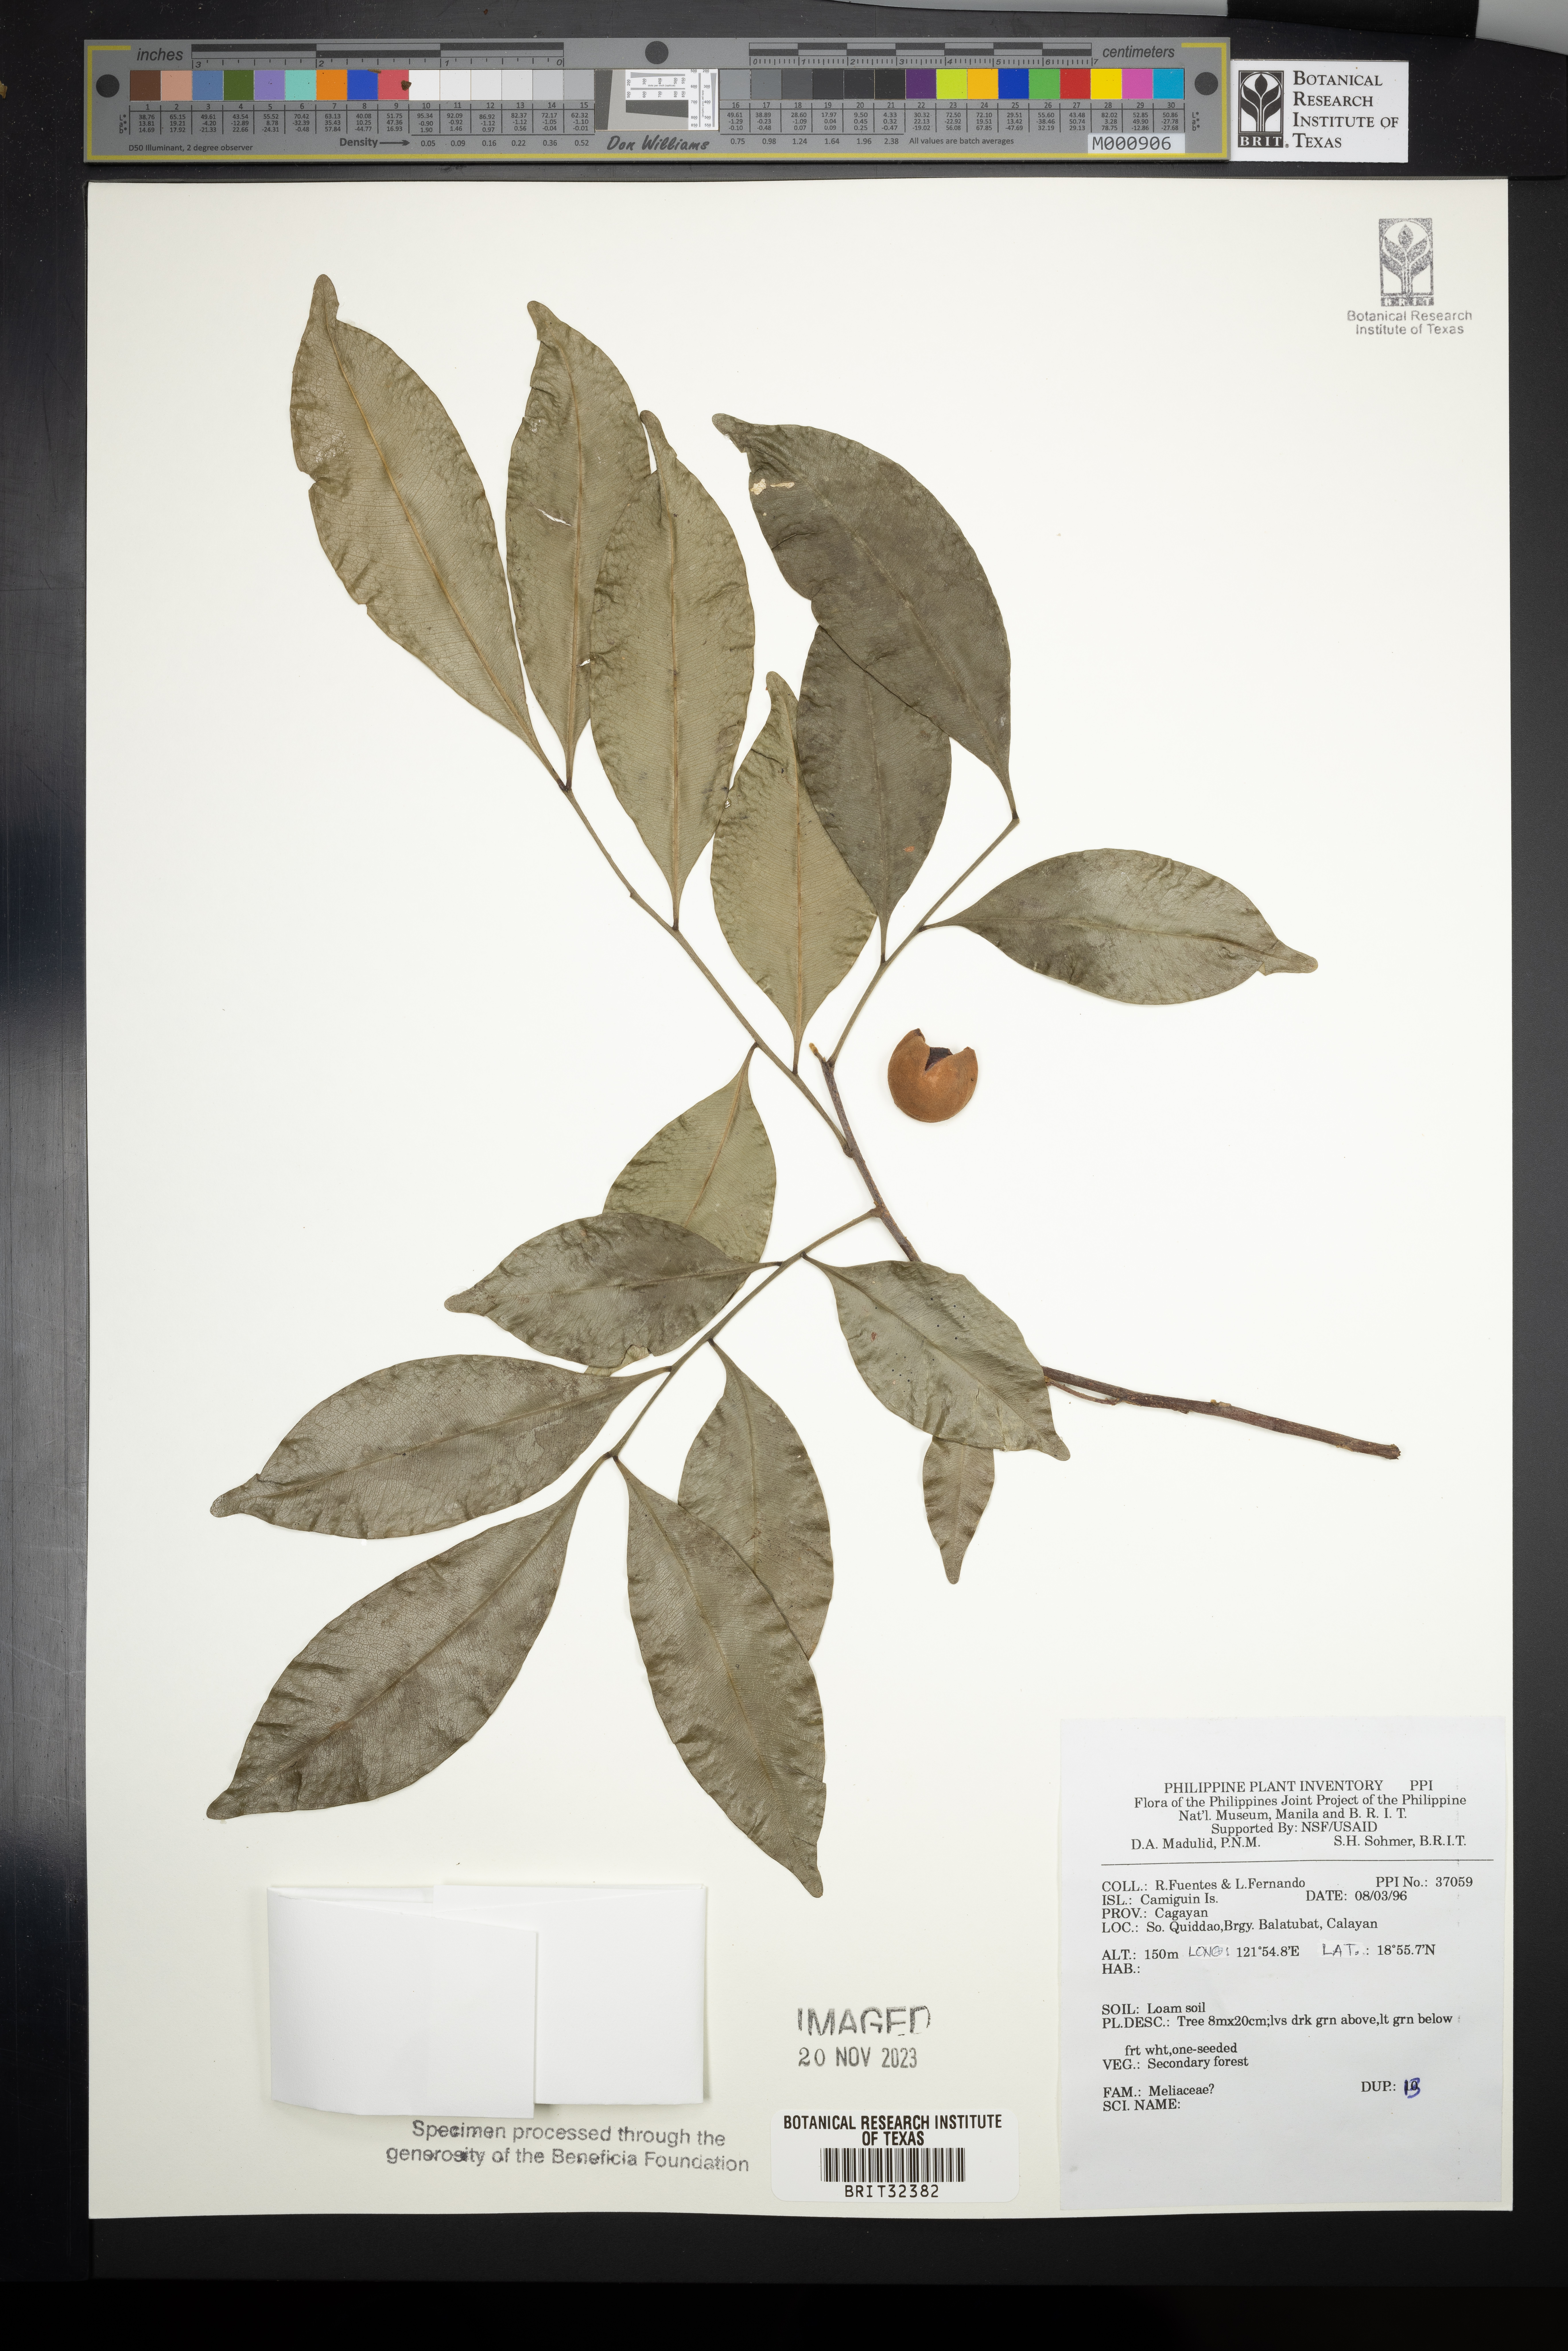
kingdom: Plantae
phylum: Tracheophyta
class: Magnoliopsida
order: Sapindales
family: Meliaceae
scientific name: Meliaceae
